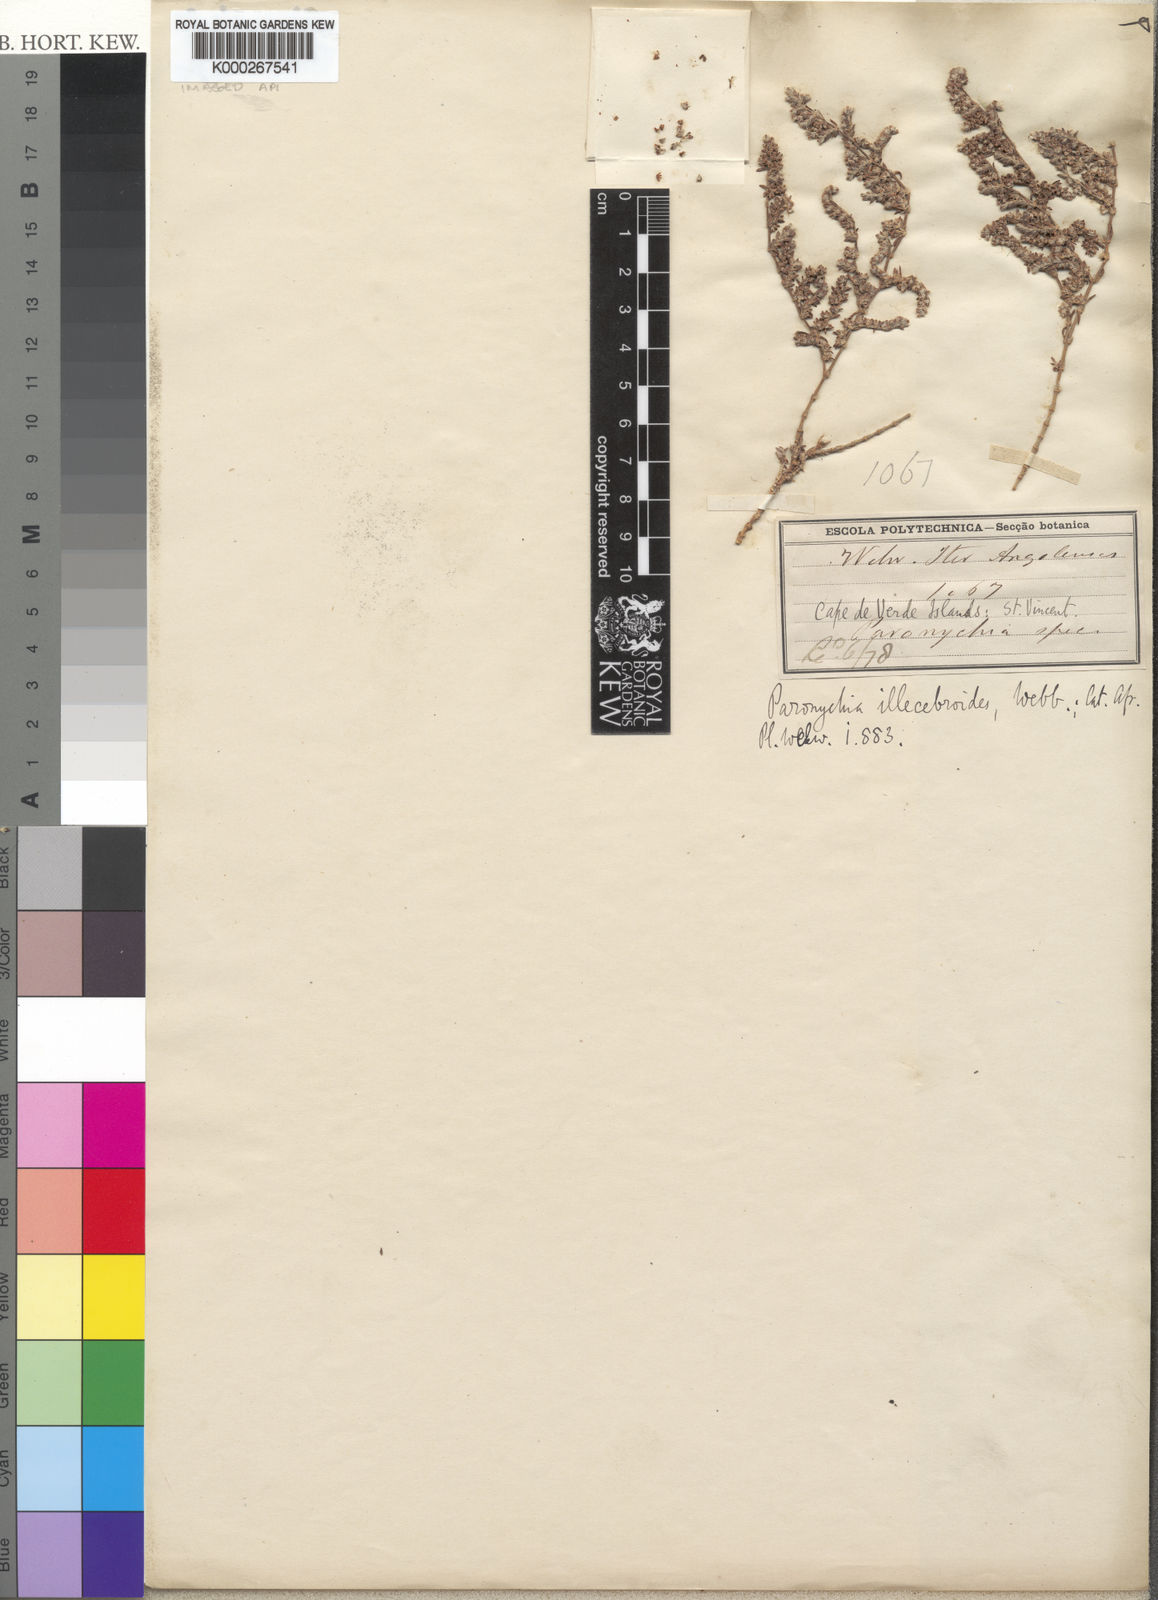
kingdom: Plantae
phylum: Tracheophyta
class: Magnoliopsida
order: Caryophyllales
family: Caryophyllaceae
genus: Paronychia
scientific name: Paronychia illecebroides
